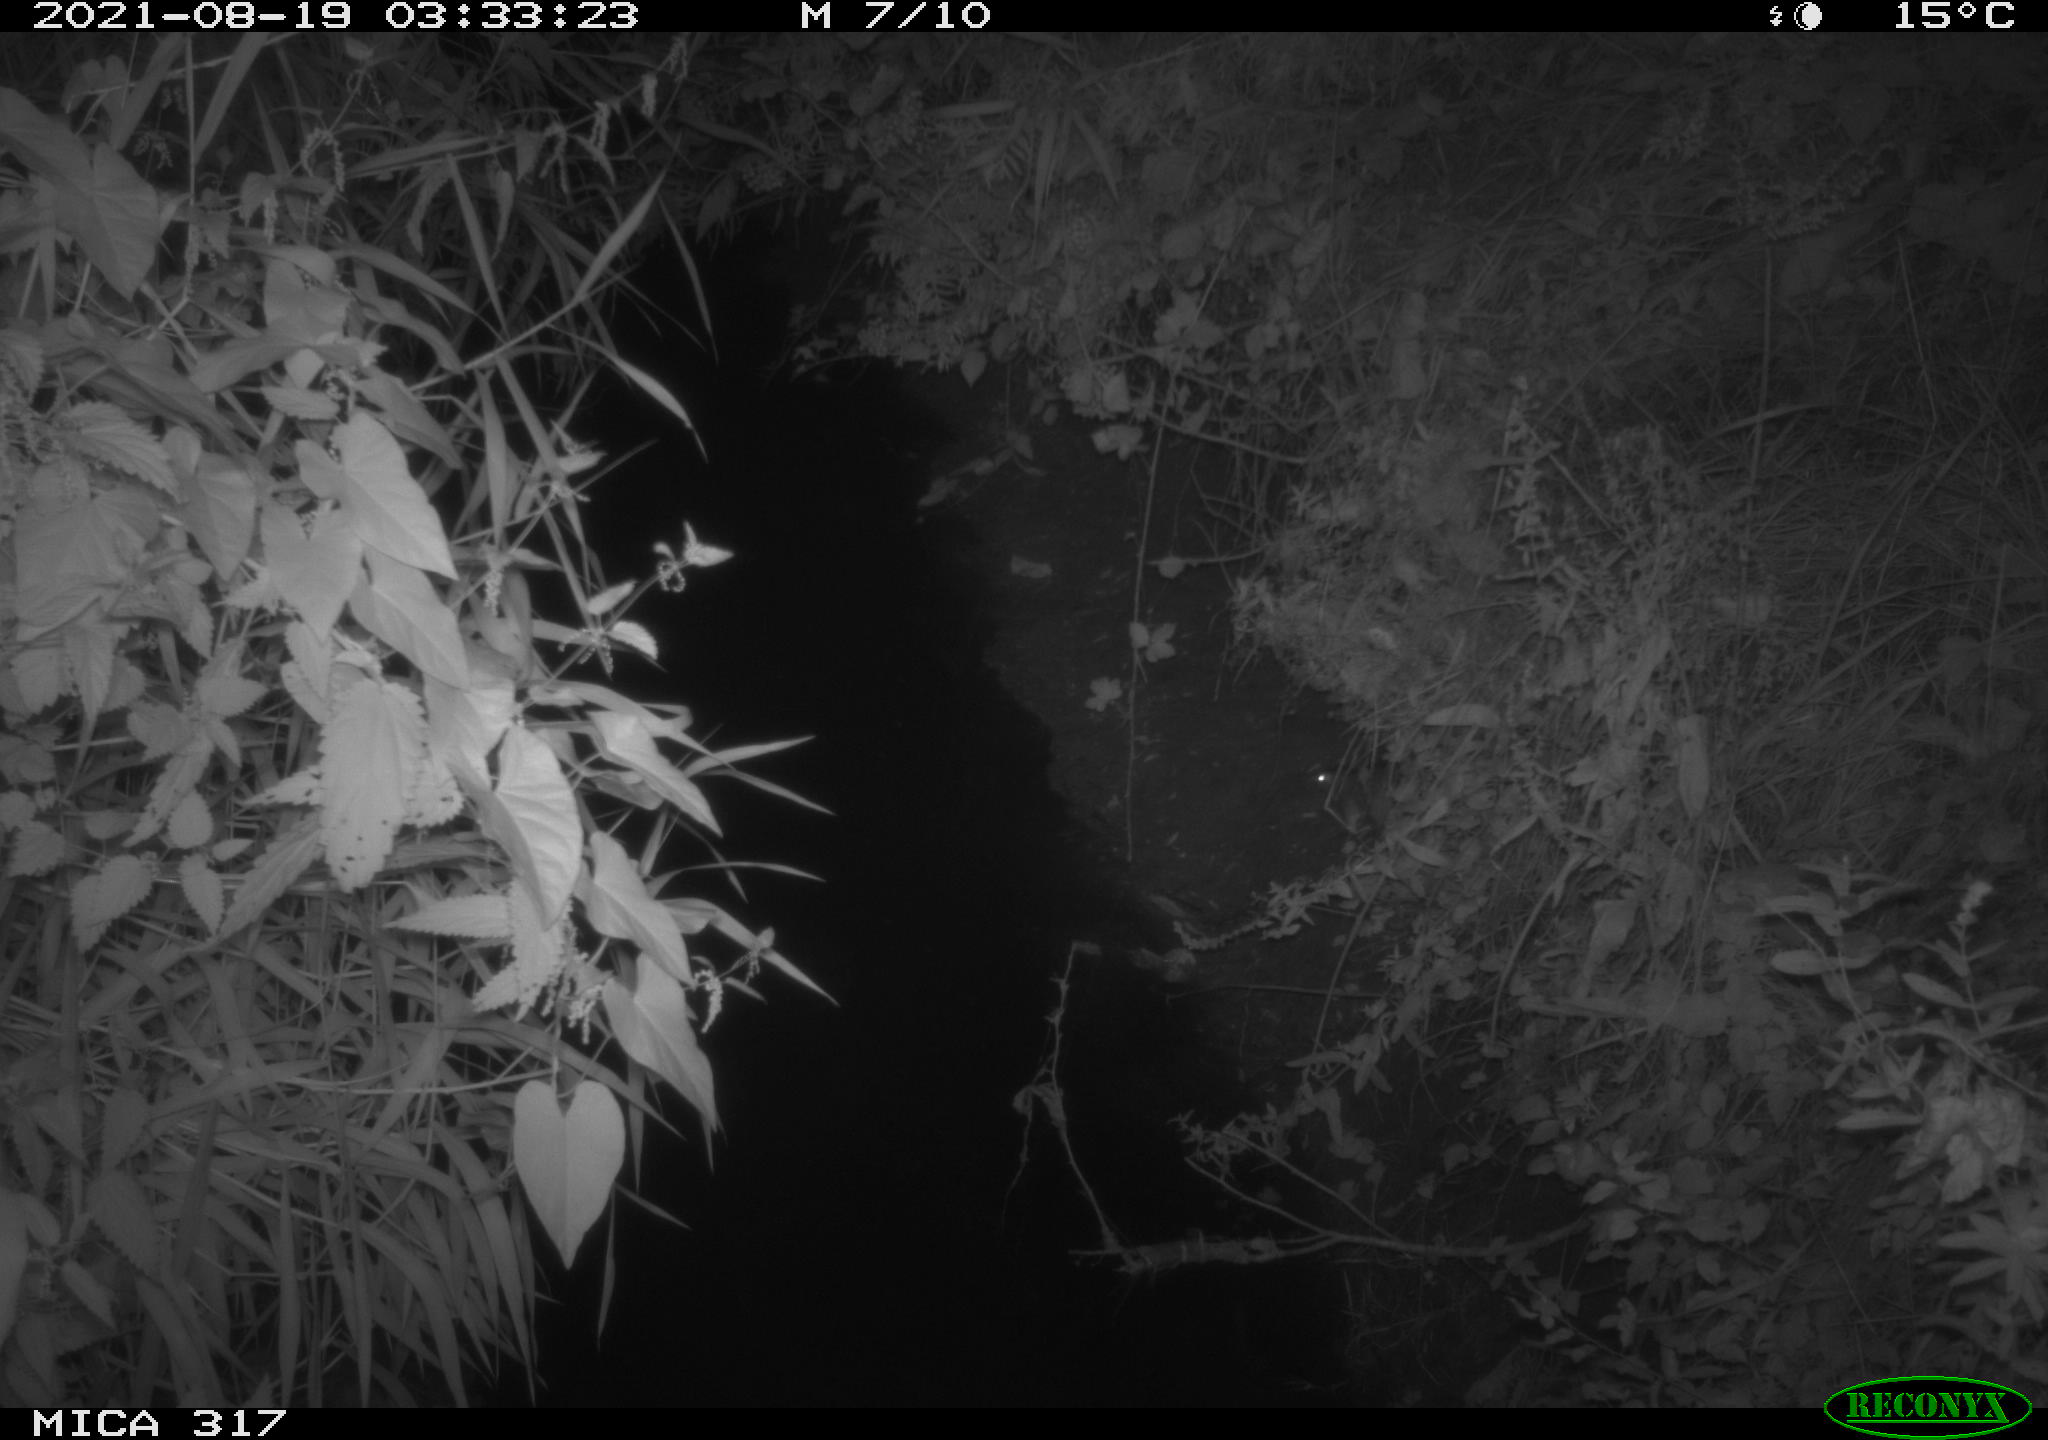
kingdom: Animalia
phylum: Chordata
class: Mammalia
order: Rodentia
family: Muridae
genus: Rattus
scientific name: Rattus norvegicus
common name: Brown rat
